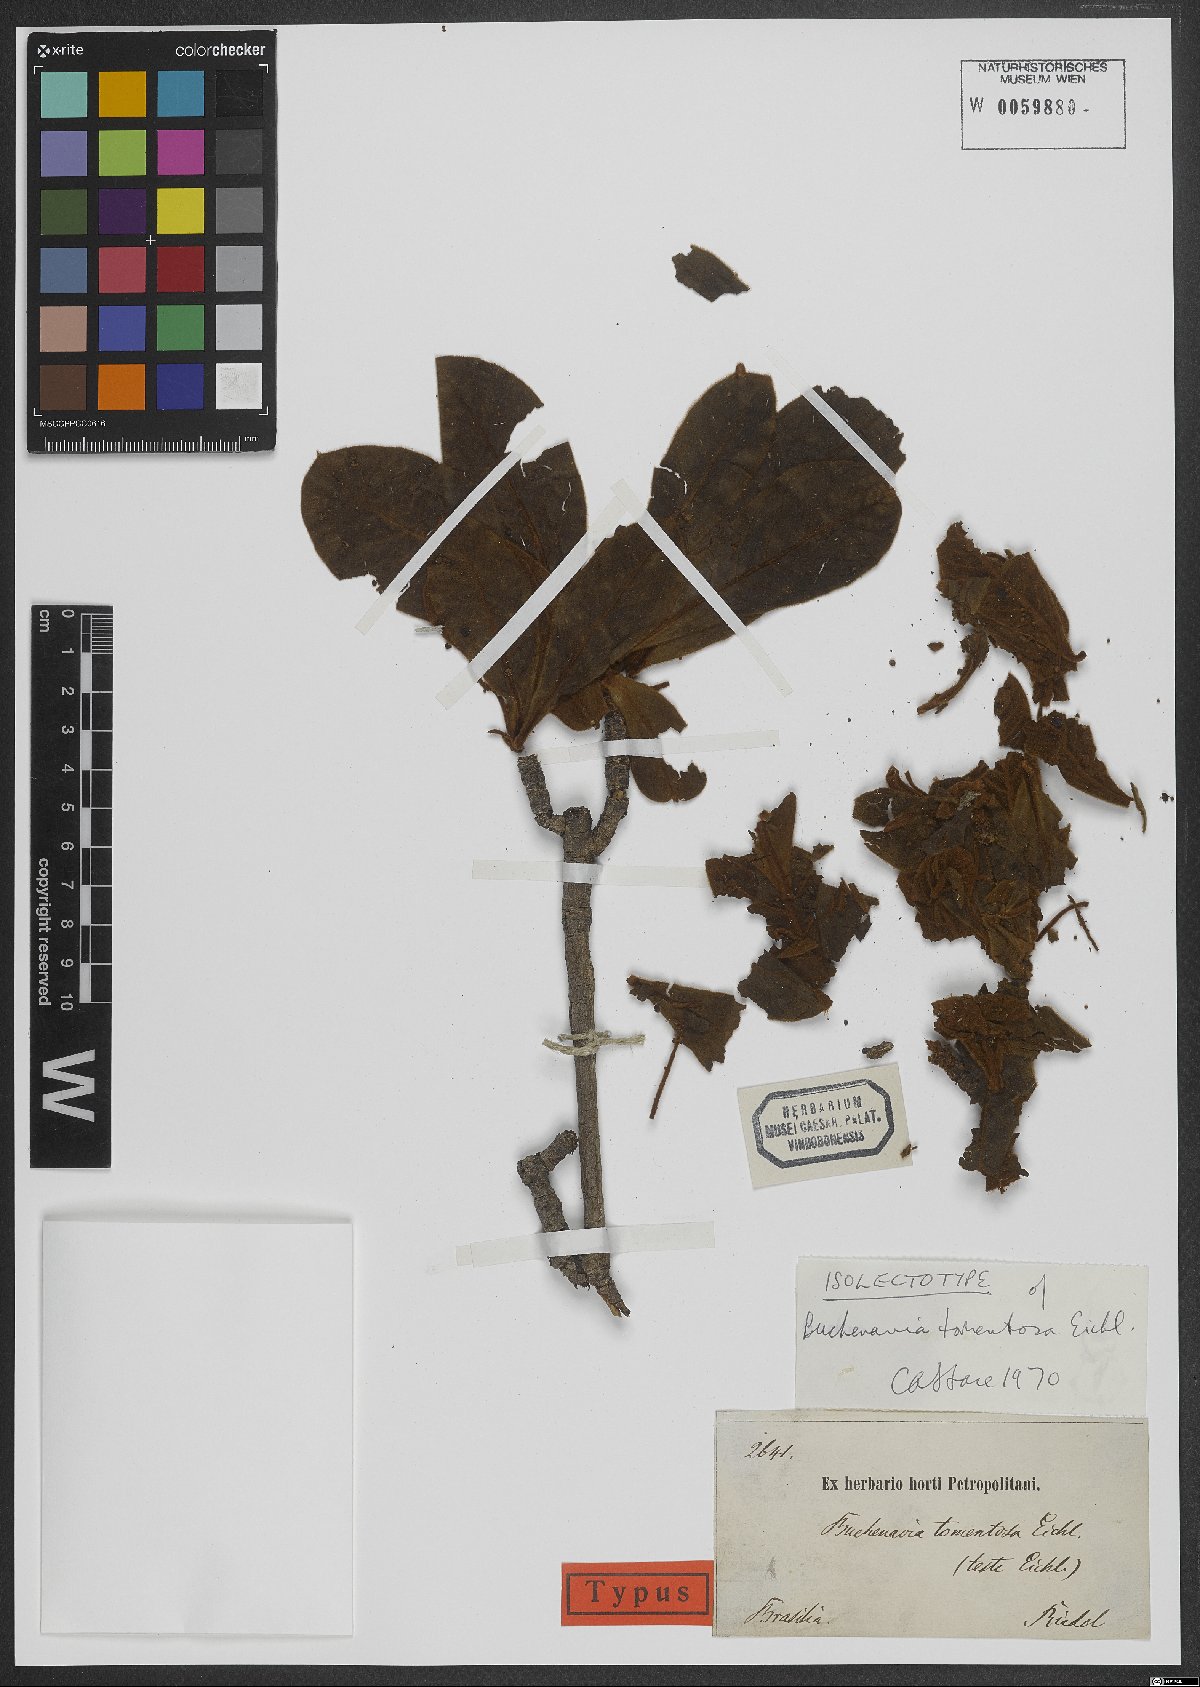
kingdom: Plantae
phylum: Tracheophyta
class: Magnoliopsida
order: Myrtales
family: Combretaceae
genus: Terminalia
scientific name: Terminalia corrugata
